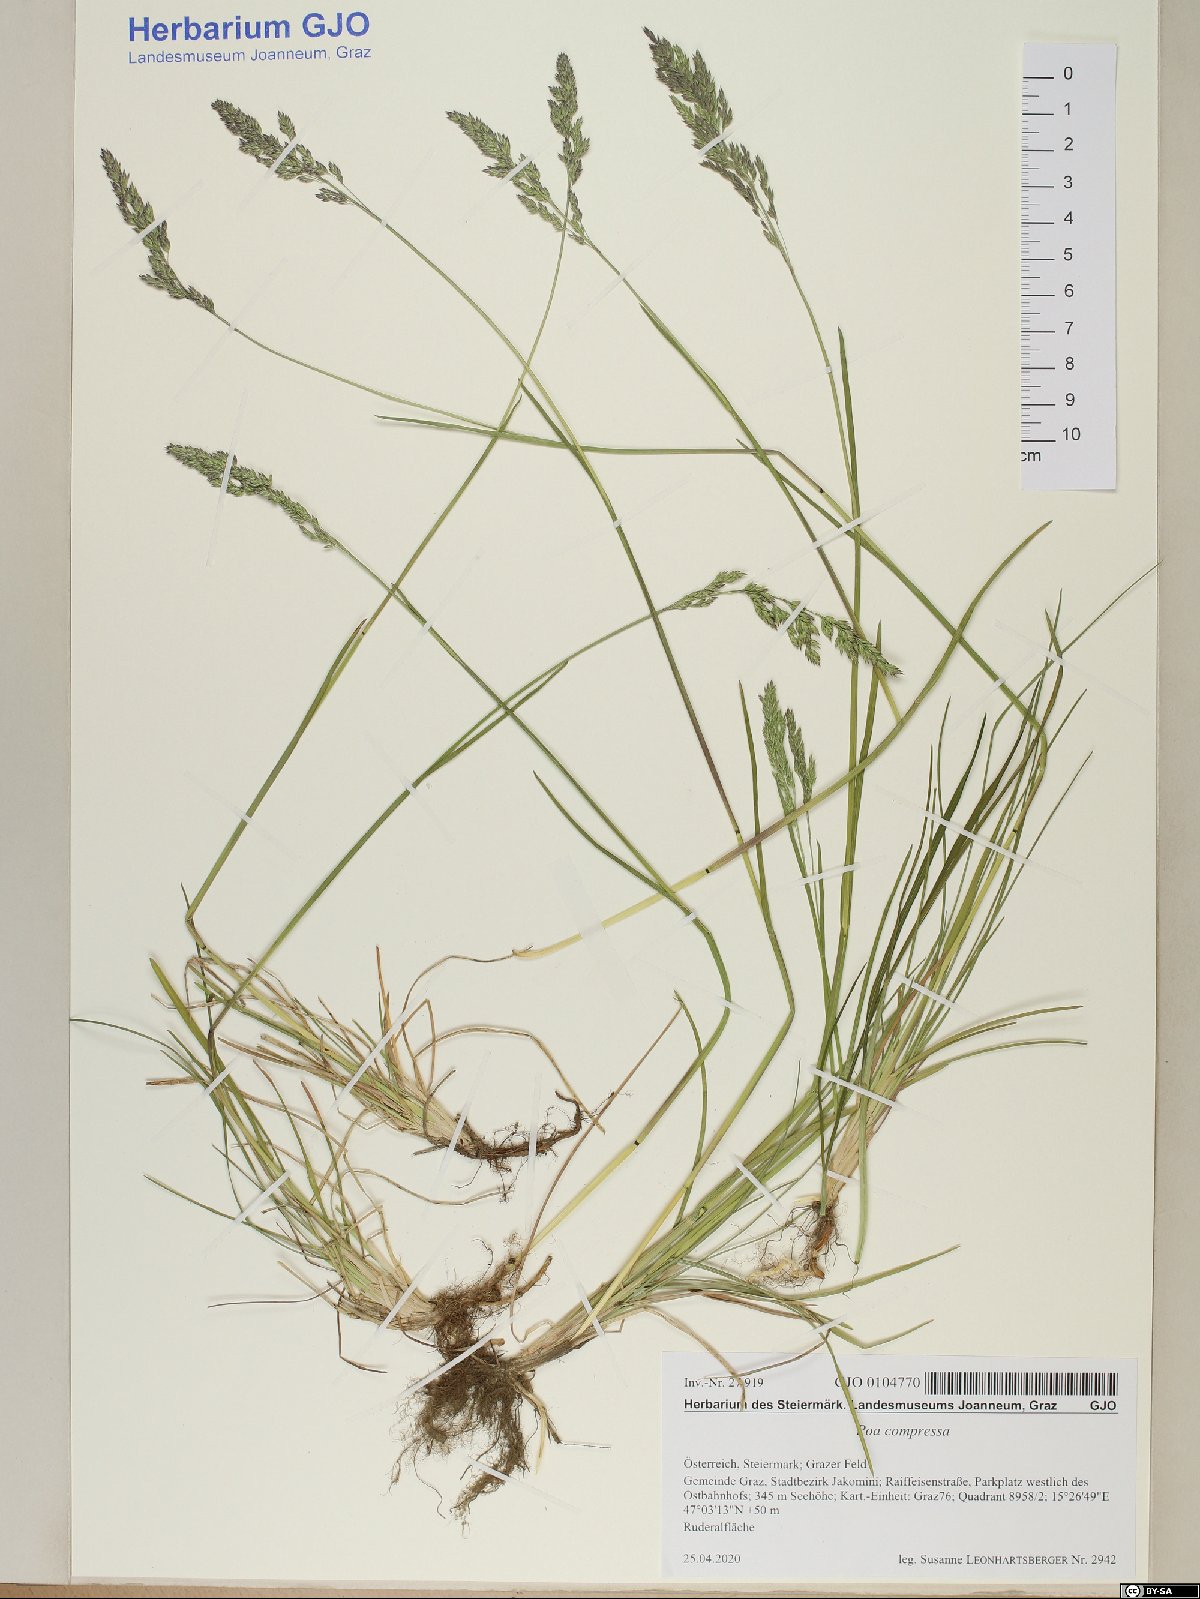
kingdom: Plantae
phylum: Tracheophyta
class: Liliopsida
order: Poales
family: Poaceae
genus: Poa
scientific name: Poa compressa
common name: Canada bluegrass
